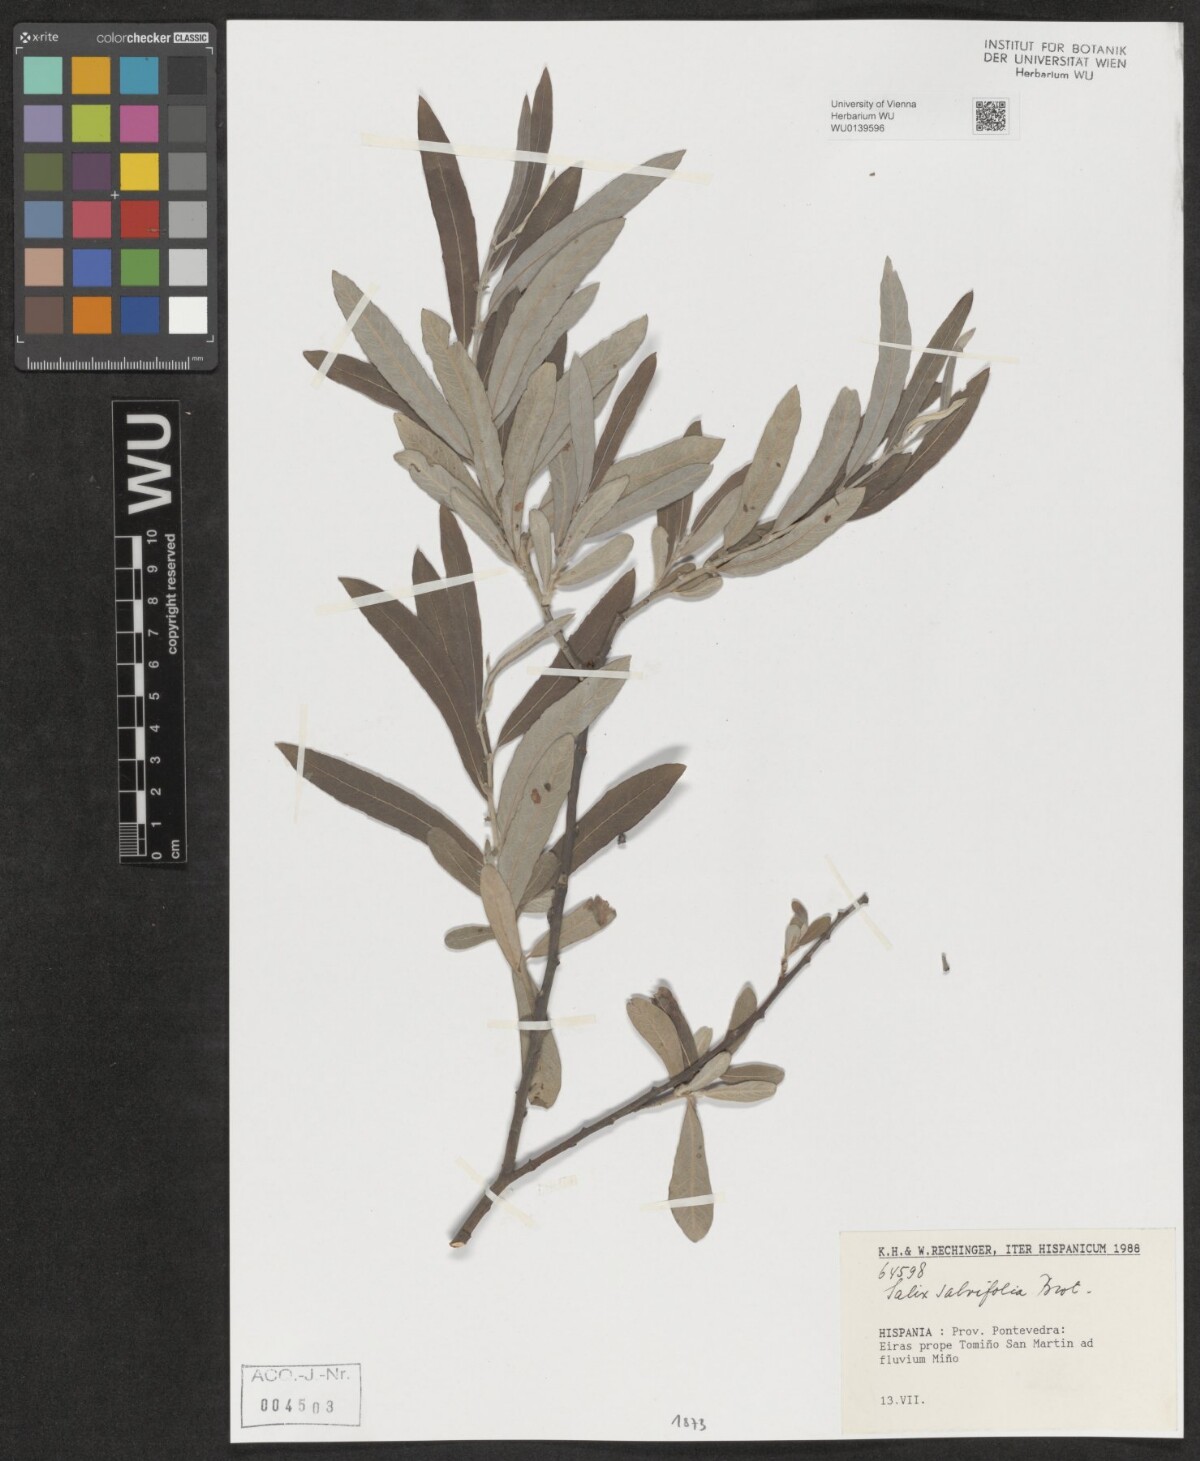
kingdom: Plantae
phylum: Tracheophyta
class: Magnoliopsida
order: Malpighiales
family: Salicaceae
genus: Salix
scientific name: Salix salviifolia
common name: Salvia-leaf willow
